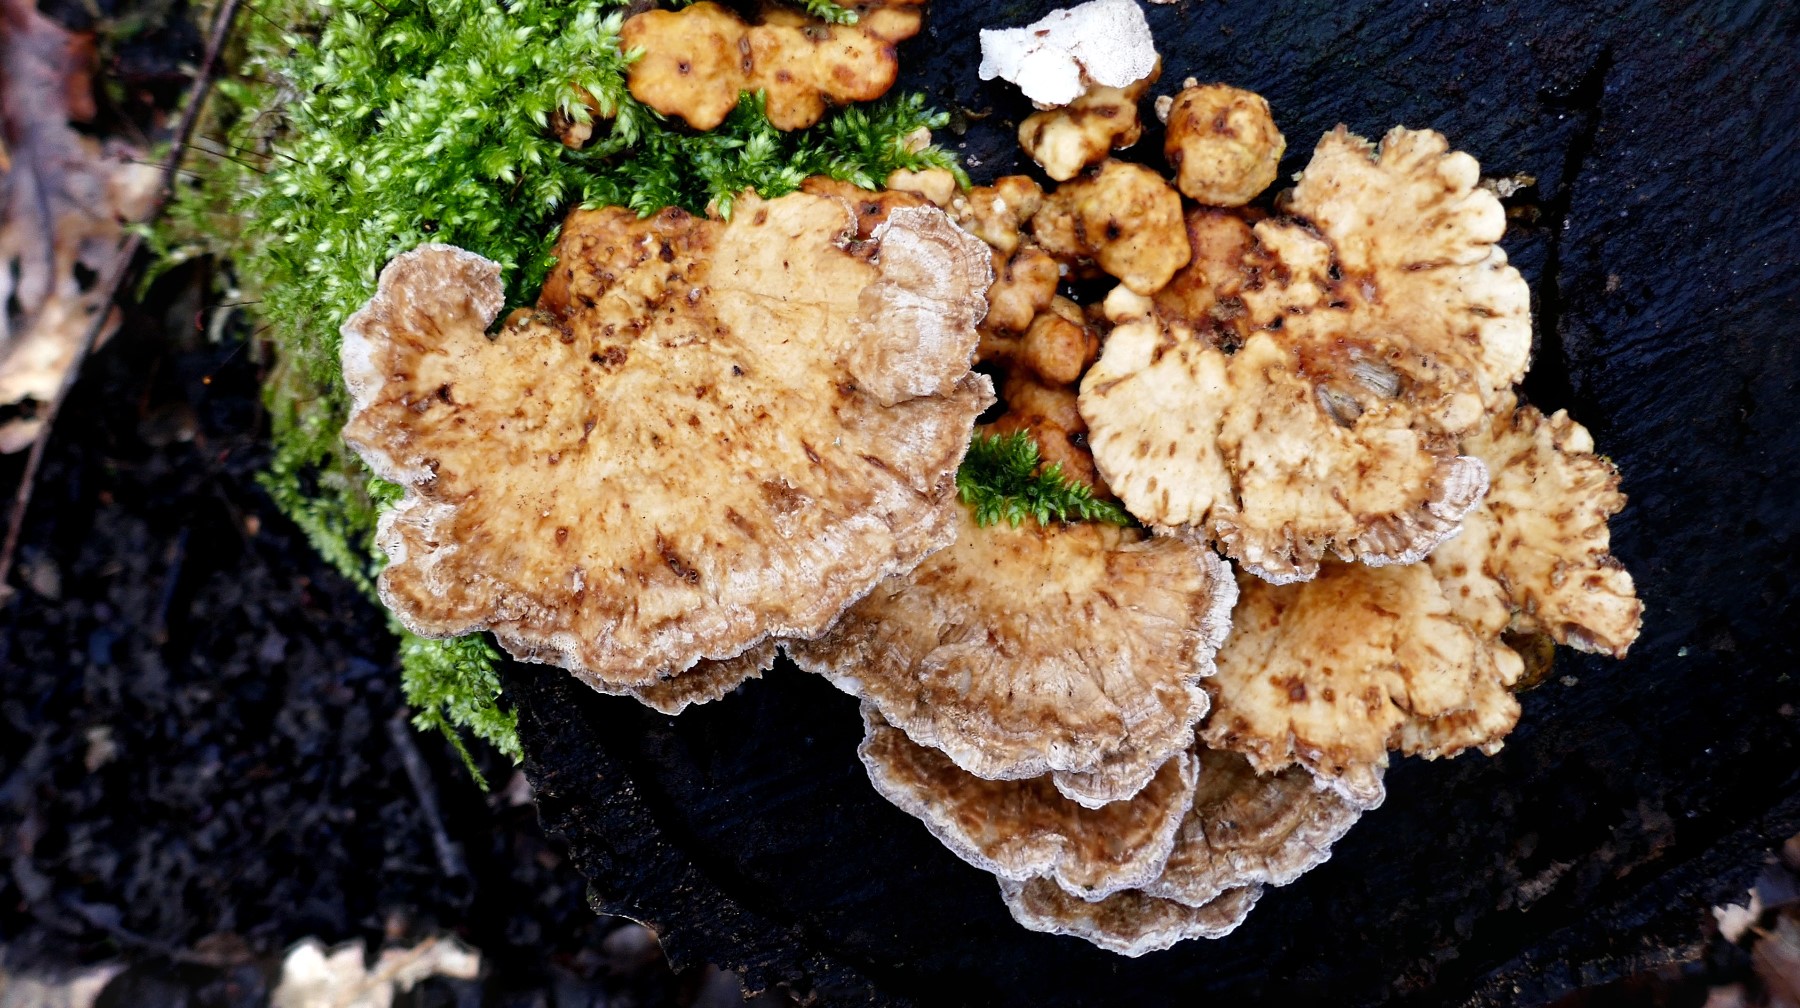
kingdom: Fungi
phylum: Basidiomycota
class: Agaricomycetes
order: Polyporales
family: Polyporaceae
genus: Trametes
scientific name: Trametes ochracea
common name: bæltet læderporesvamp
